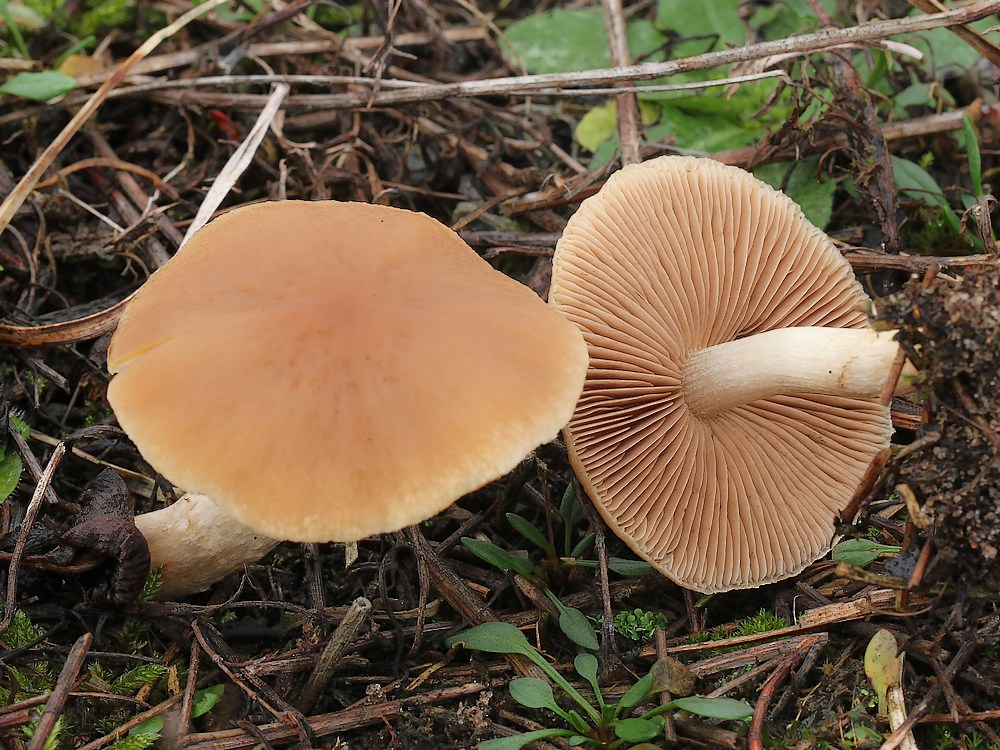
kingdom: Fungi
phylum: Basidiomycota
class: Agaricomycetes
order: Agaricales
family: Psathyrellaceae
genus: Psathyrella
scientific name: Psathyrella piluliformis
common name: lysstokket mørkhat
